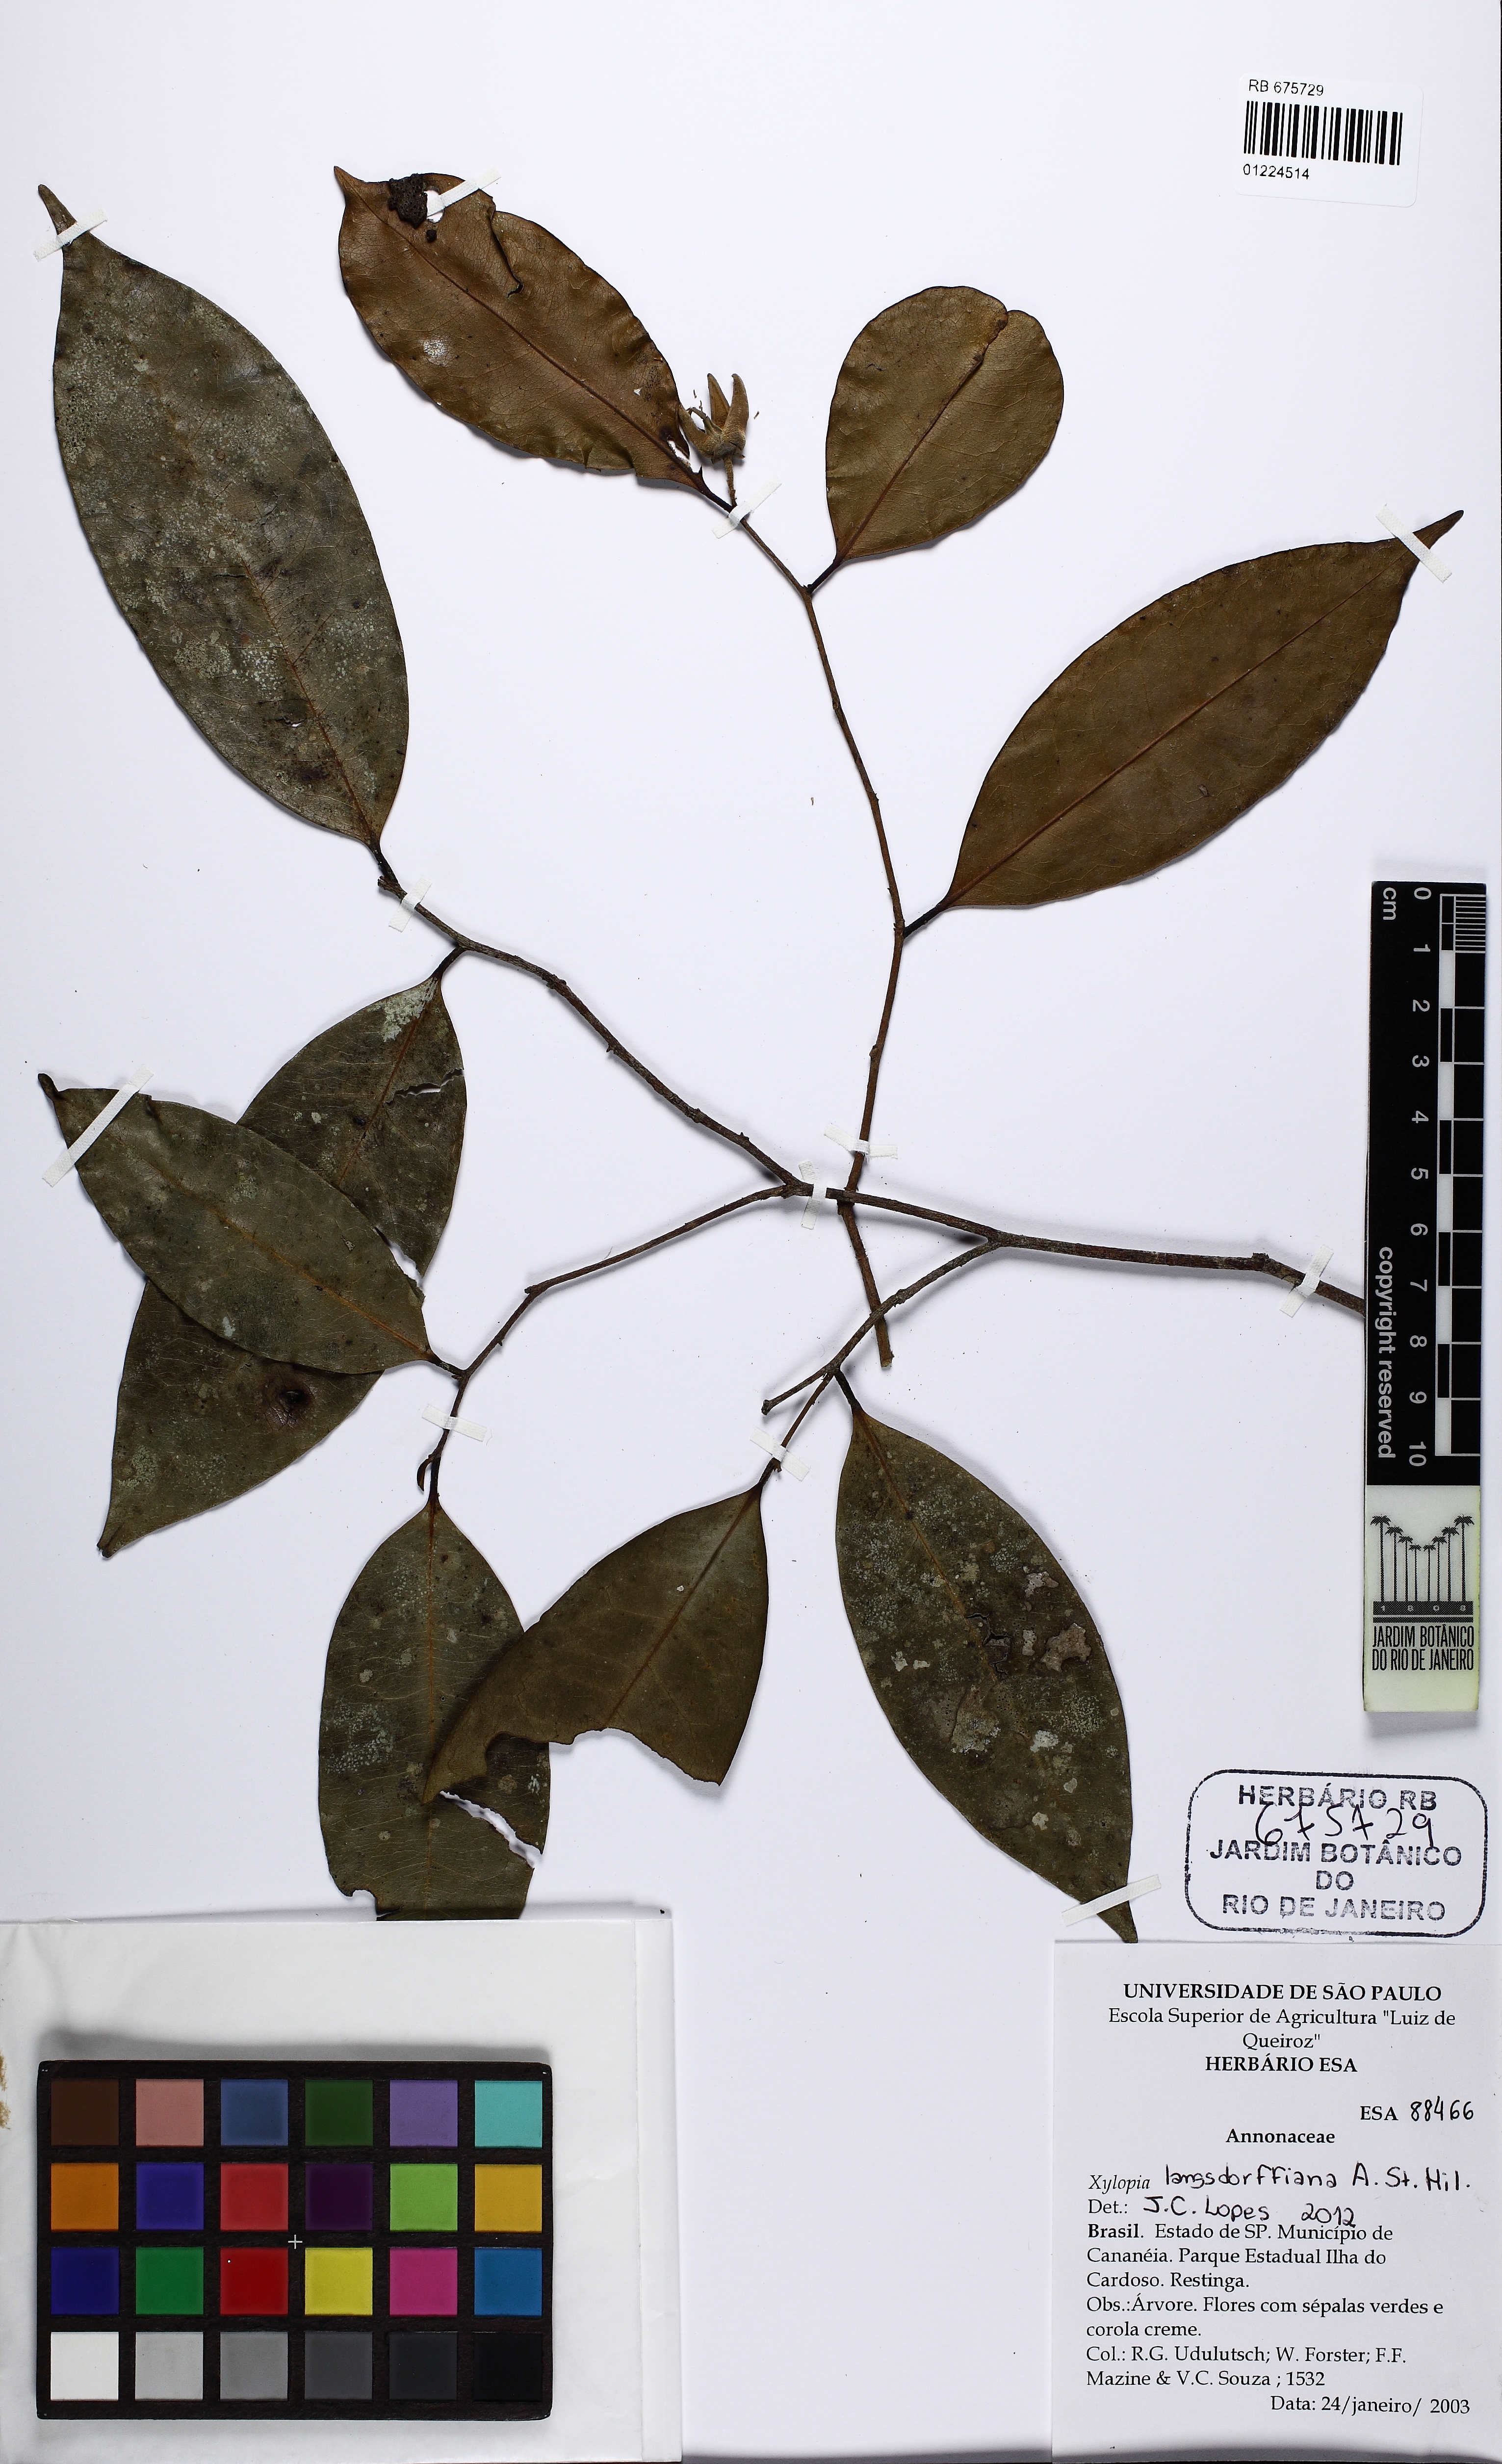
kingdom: Plantae
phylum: Tracheophyta
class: Magnoliopsida
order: Magnoliales
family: Annonaceae
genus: Xylopia
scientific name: Xylopia langsdorfiana
